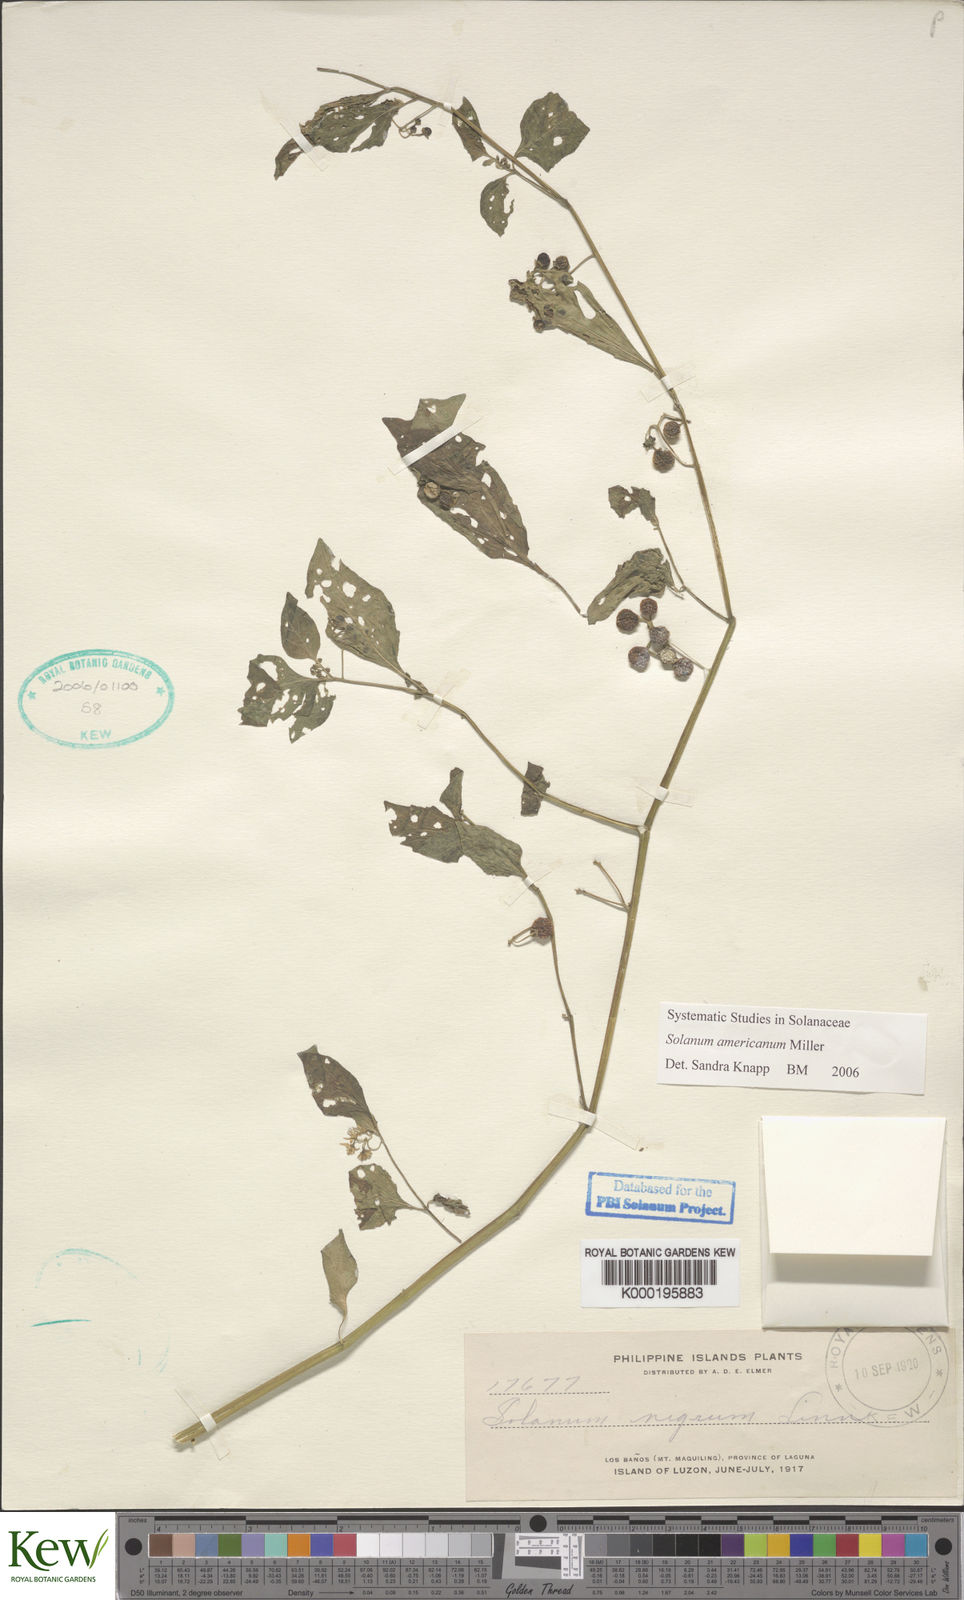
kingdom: Plantae
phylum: Tracheophyta
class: Magnoliopsida
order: Solanales
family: Solanaceae
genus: Solanum
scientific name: Solanum americanum
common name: American black nightshade
